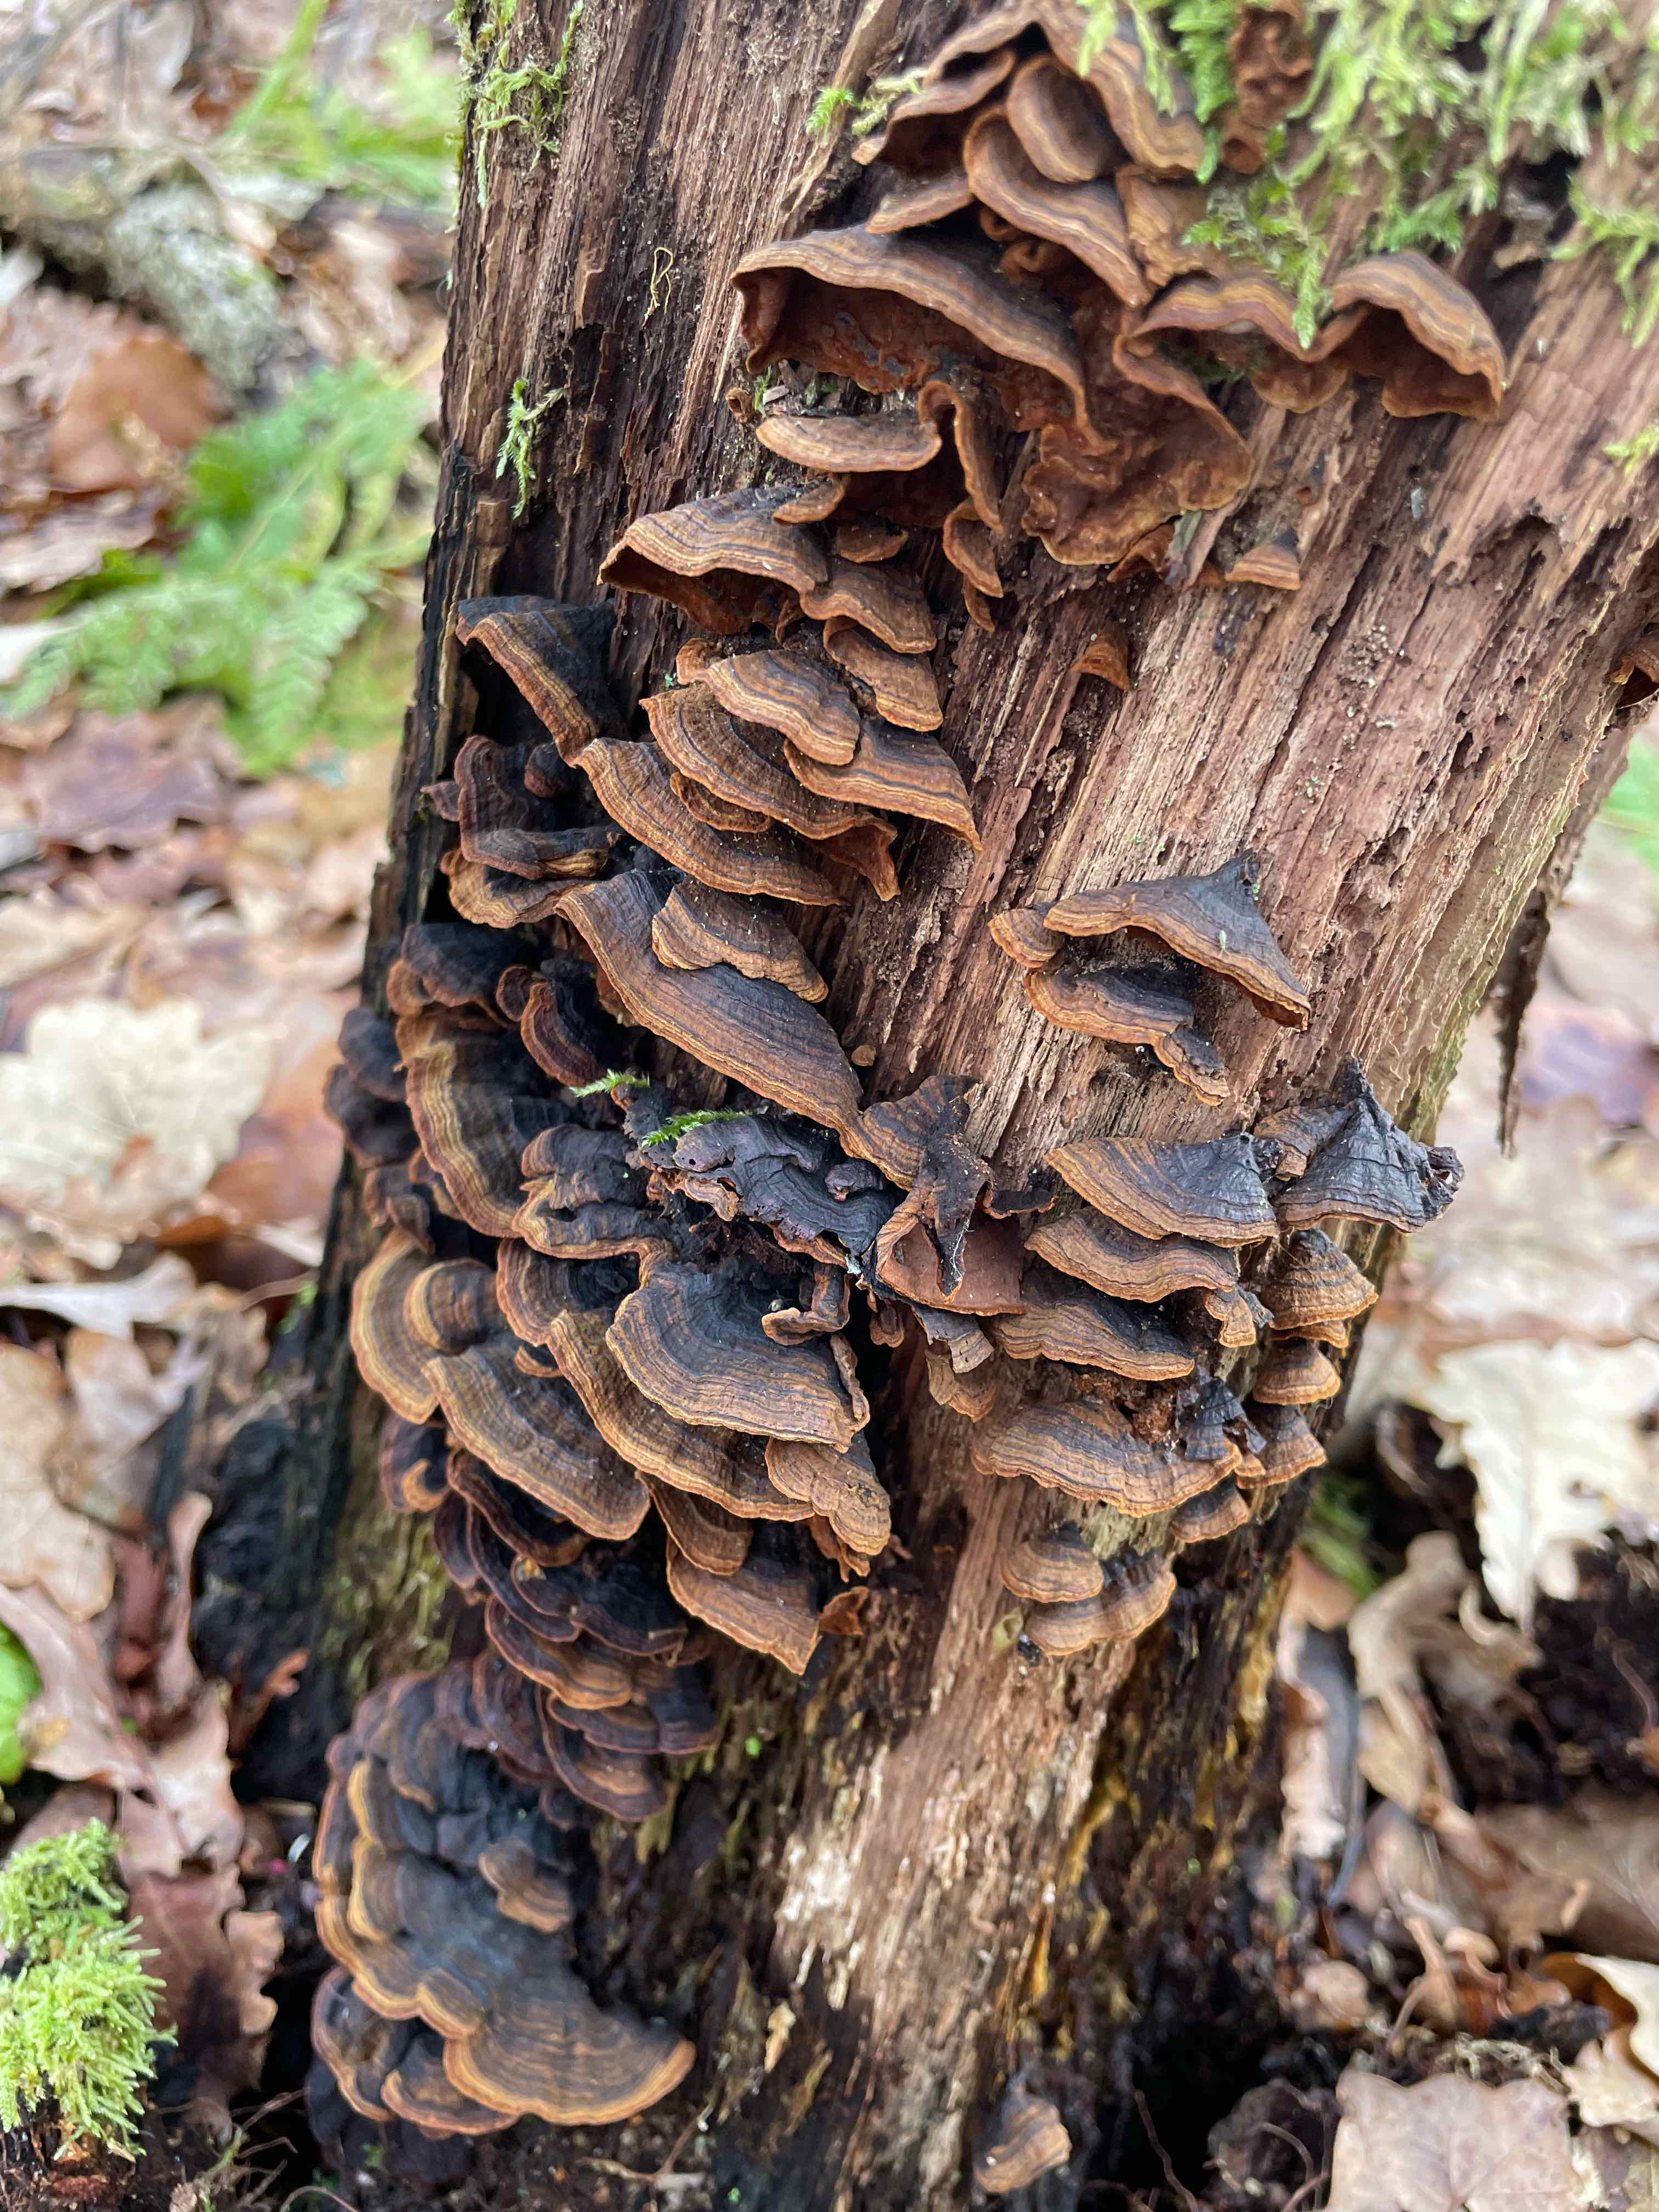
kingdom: Fungi
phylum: Basidiomycota
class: Agaricomycetes
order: Hymenochaetales
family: Hymenochaetaceae
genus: Hymenochaete
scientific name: Hymenochaete rubiginosa
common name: stiv ruslædersvamp
